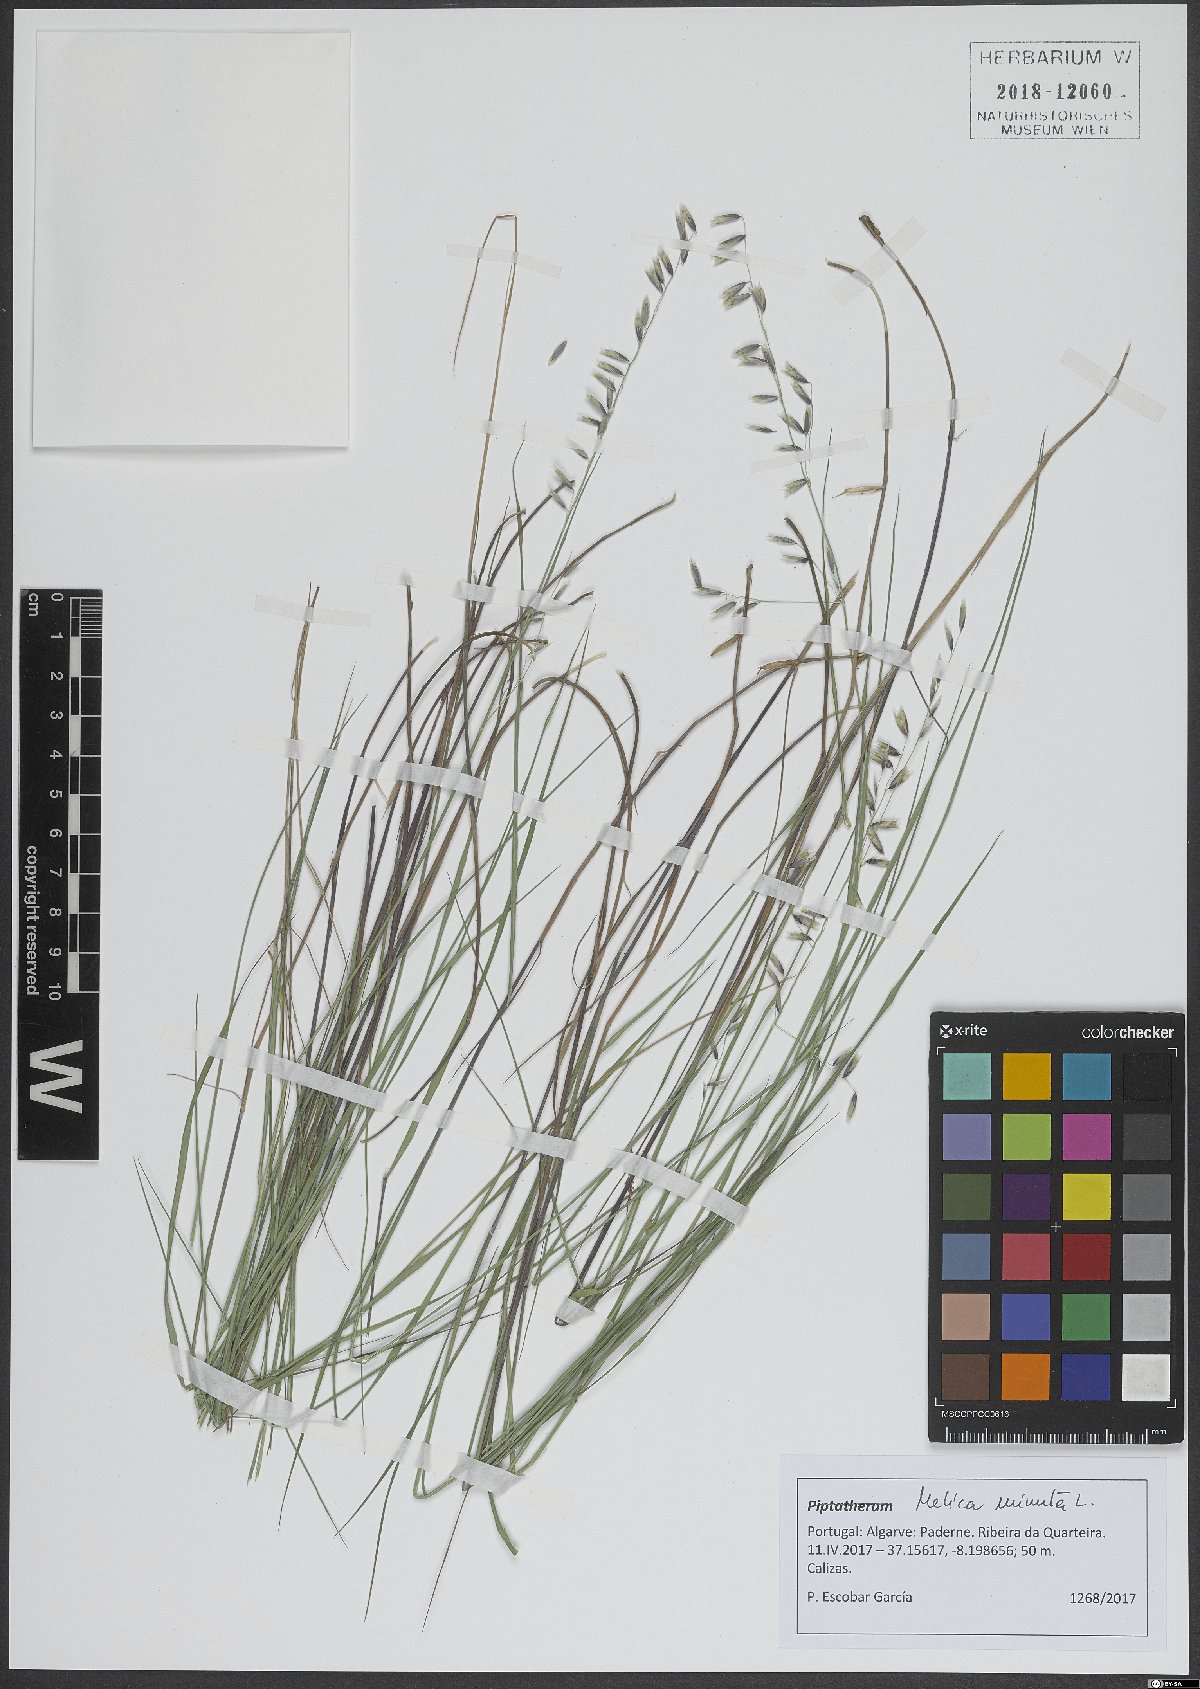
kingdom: Plantae
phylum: Tracheophyta
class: Liliopsida
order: Poales
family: Poaceae
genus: Melica
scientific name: Melica minuta
